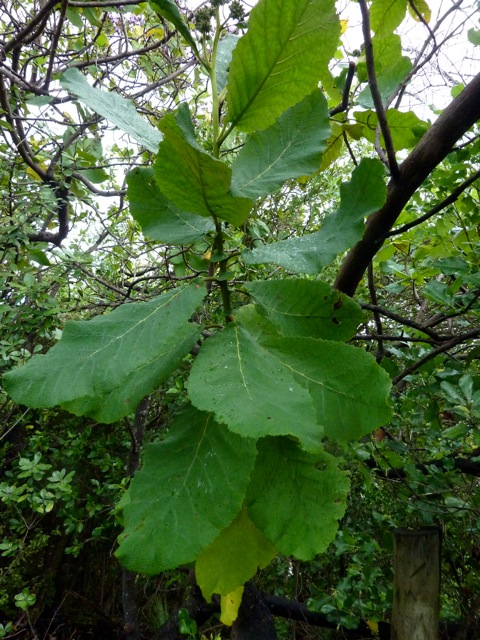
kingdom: Plantae
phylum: Tracheophyta
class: Magnoliopsida
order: Boraginales
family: Namaceae
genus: Wigandia
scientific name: Wigandia urens
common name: Caracus wigandia
